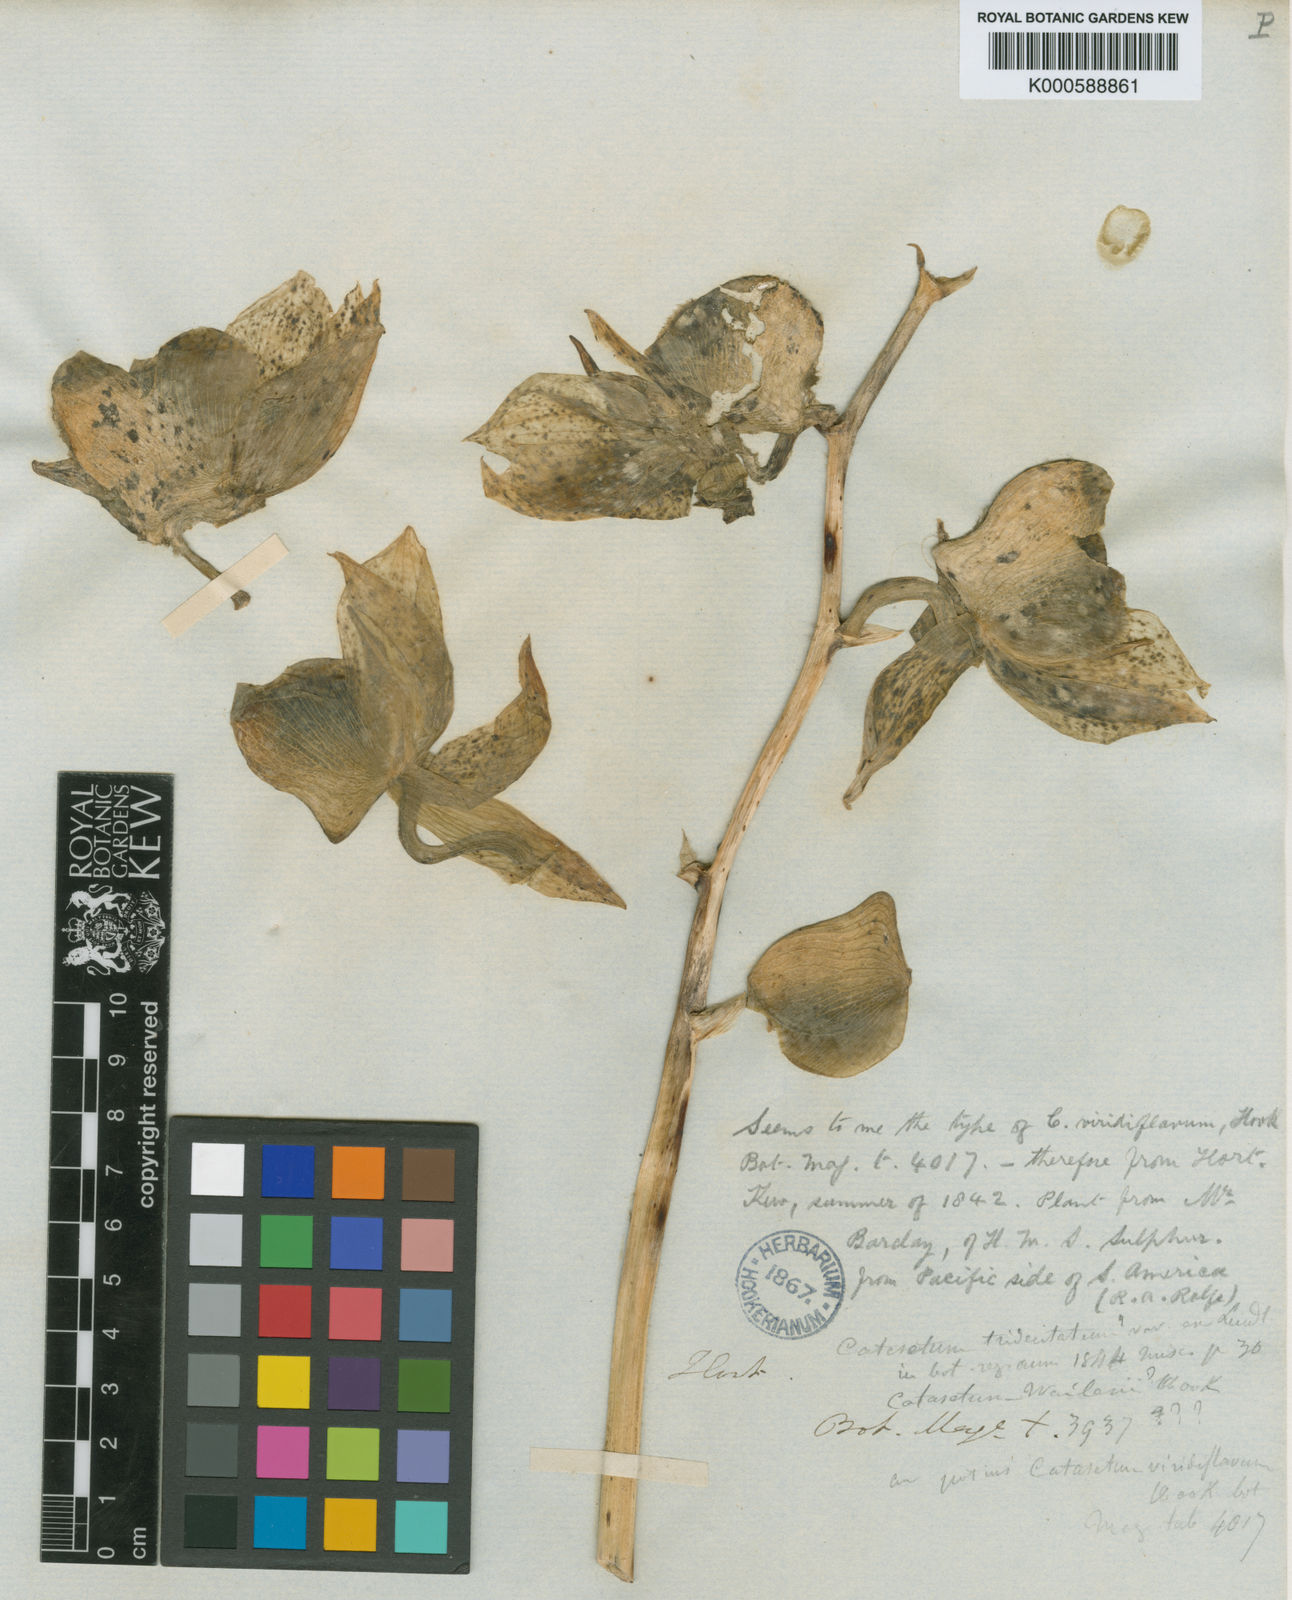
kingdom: Plantae
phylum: Tracheophyta
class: Liliopsida
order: Asparagales
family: Orchidaceae
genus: Catasetum
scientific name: Catasetum viridiflavum
